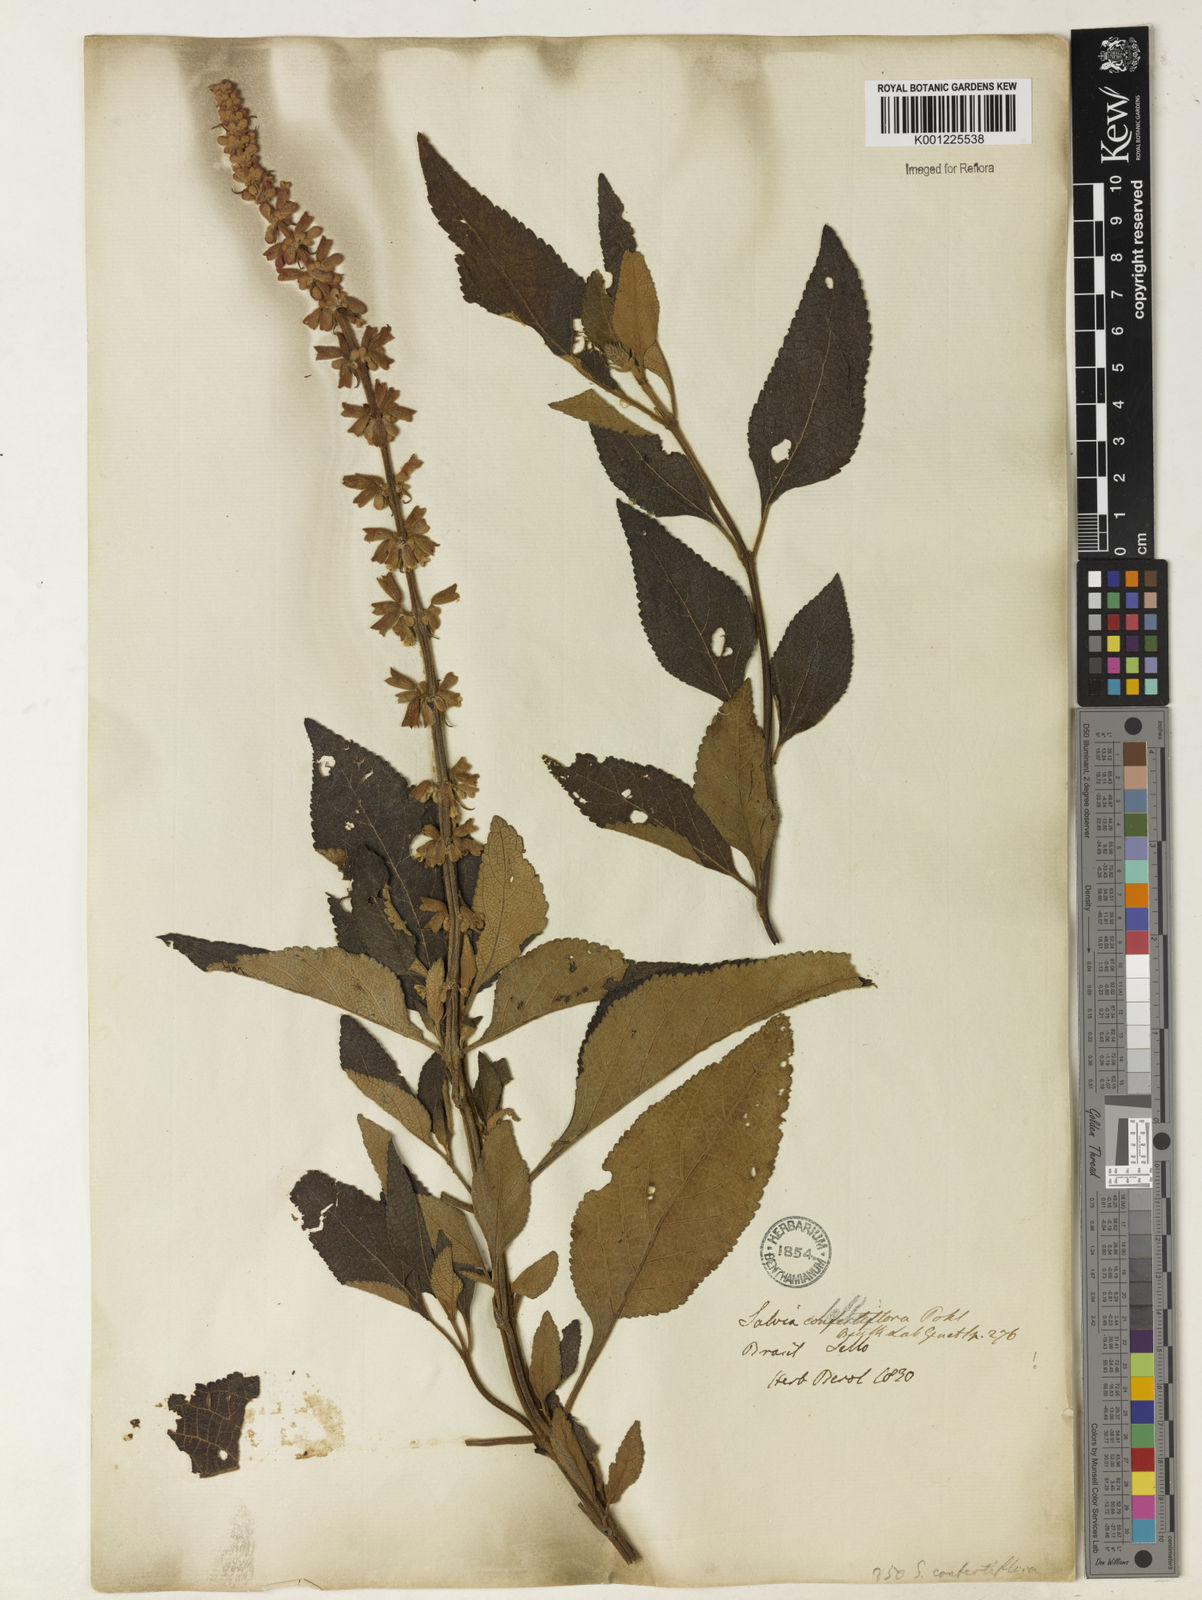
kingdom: Plantae
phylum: Tracheophyta
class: Magnoliopsida
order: Lamiales
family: Lamiaceae
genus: Salvia
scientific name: Salvia confertiflora
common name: Sabra-spike sage
